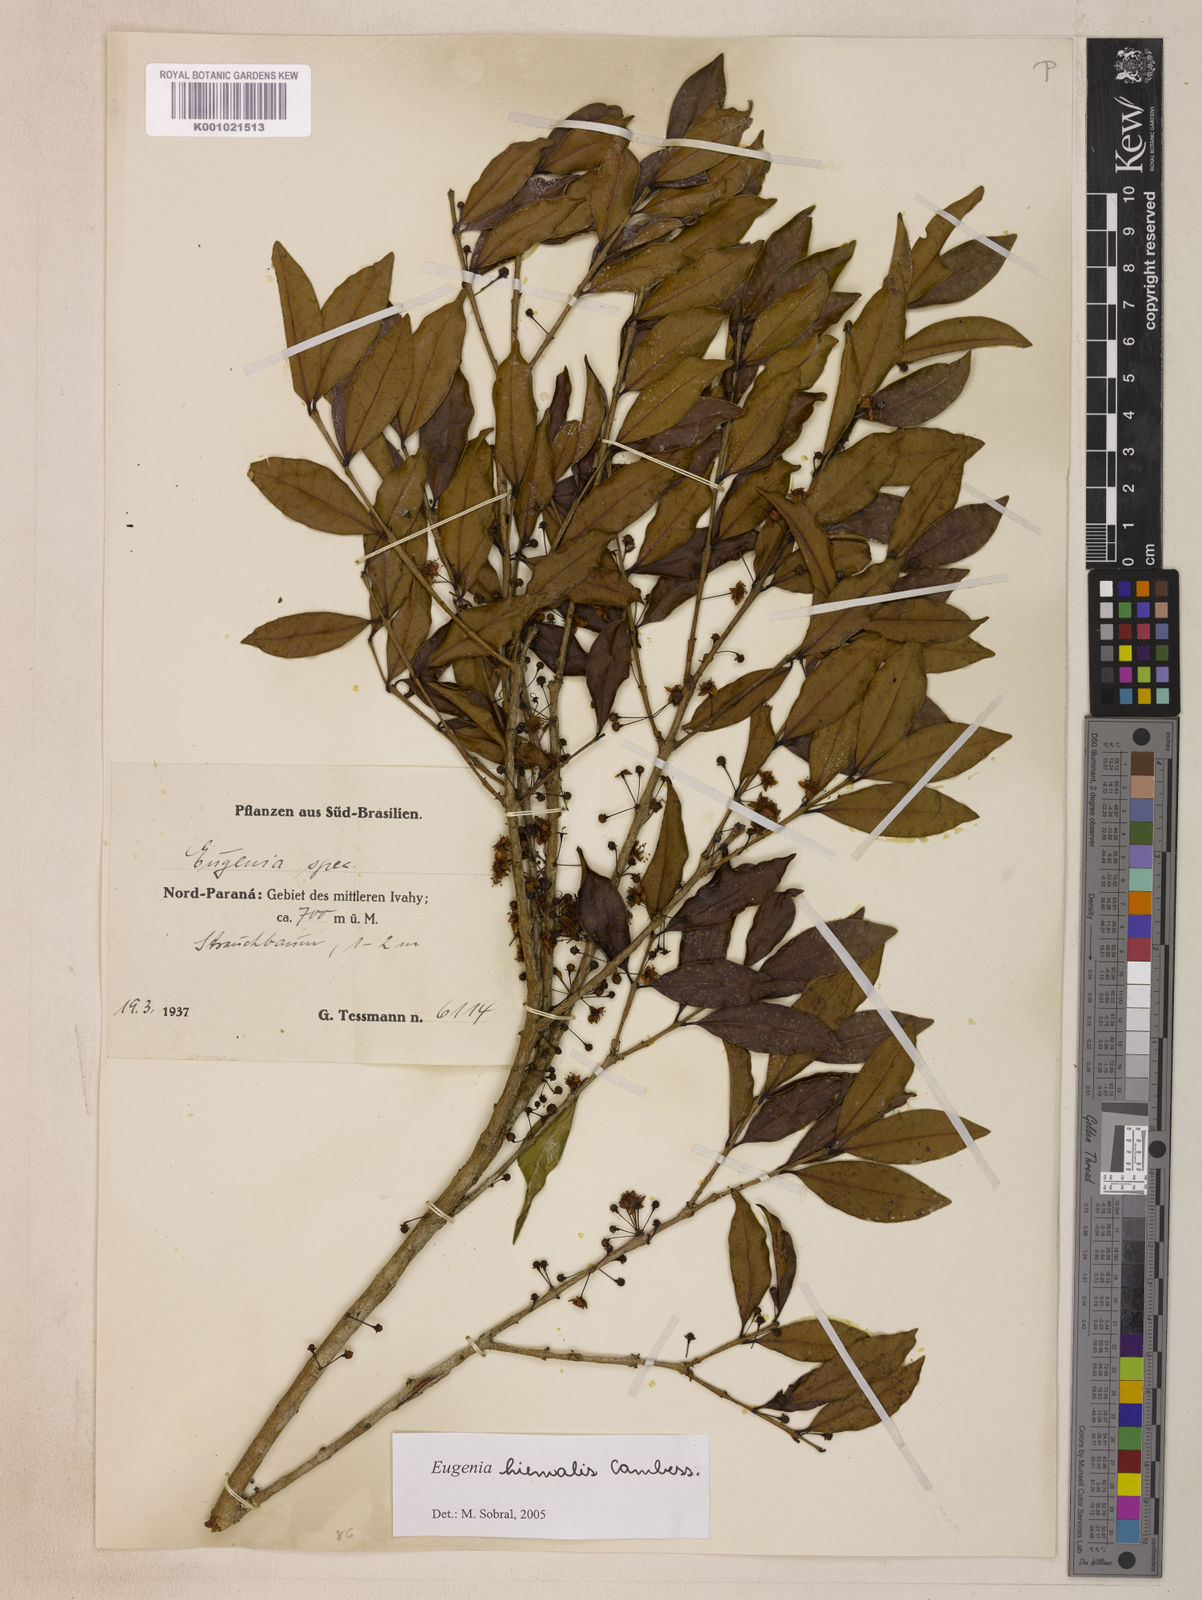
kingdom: Plantae
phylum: Tracheophyta
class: Magnoliopsida
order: Myrtales
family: Myrtaceae
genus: Eugenia
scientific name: Eugenia hiemalis
